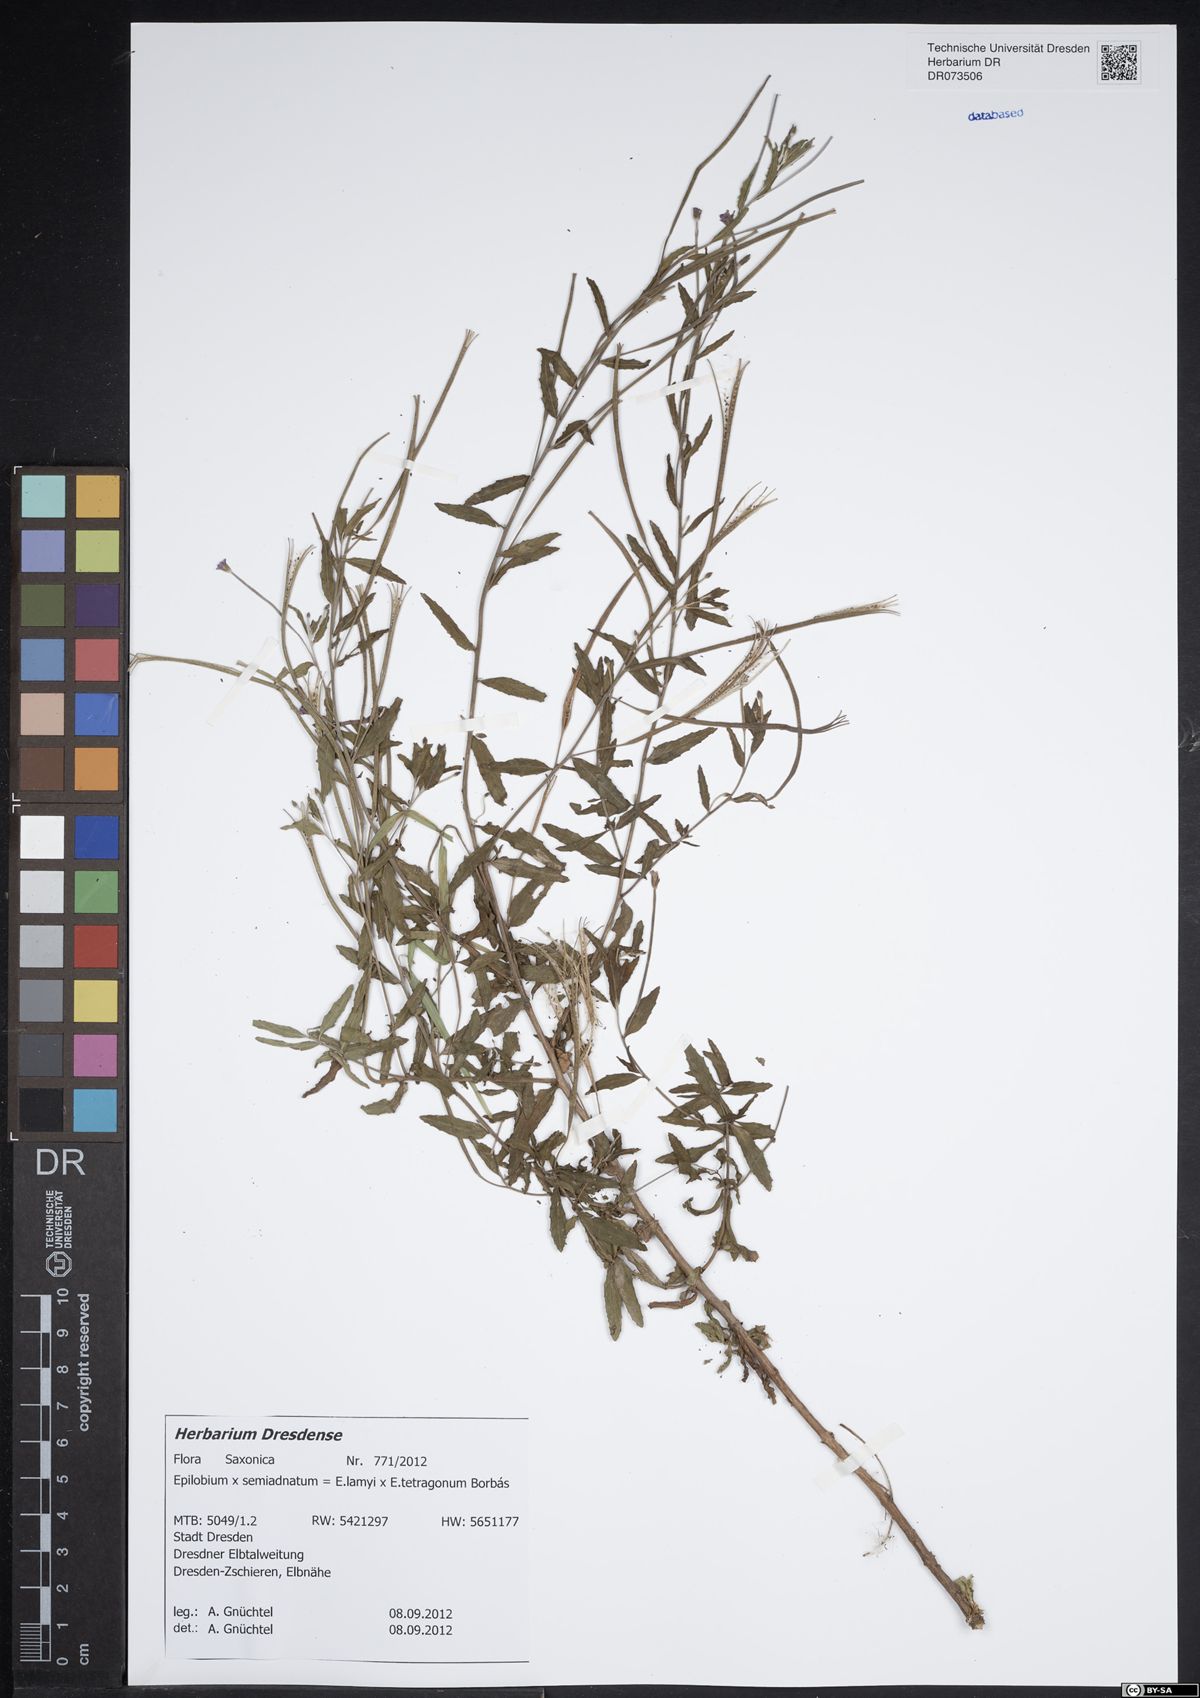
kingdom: Plantae
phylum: Tracheophyta
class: Magnoliopsida
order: Myrtales
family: Onagraceae
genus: Epilobium
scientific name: Epilobium semiadnatum
